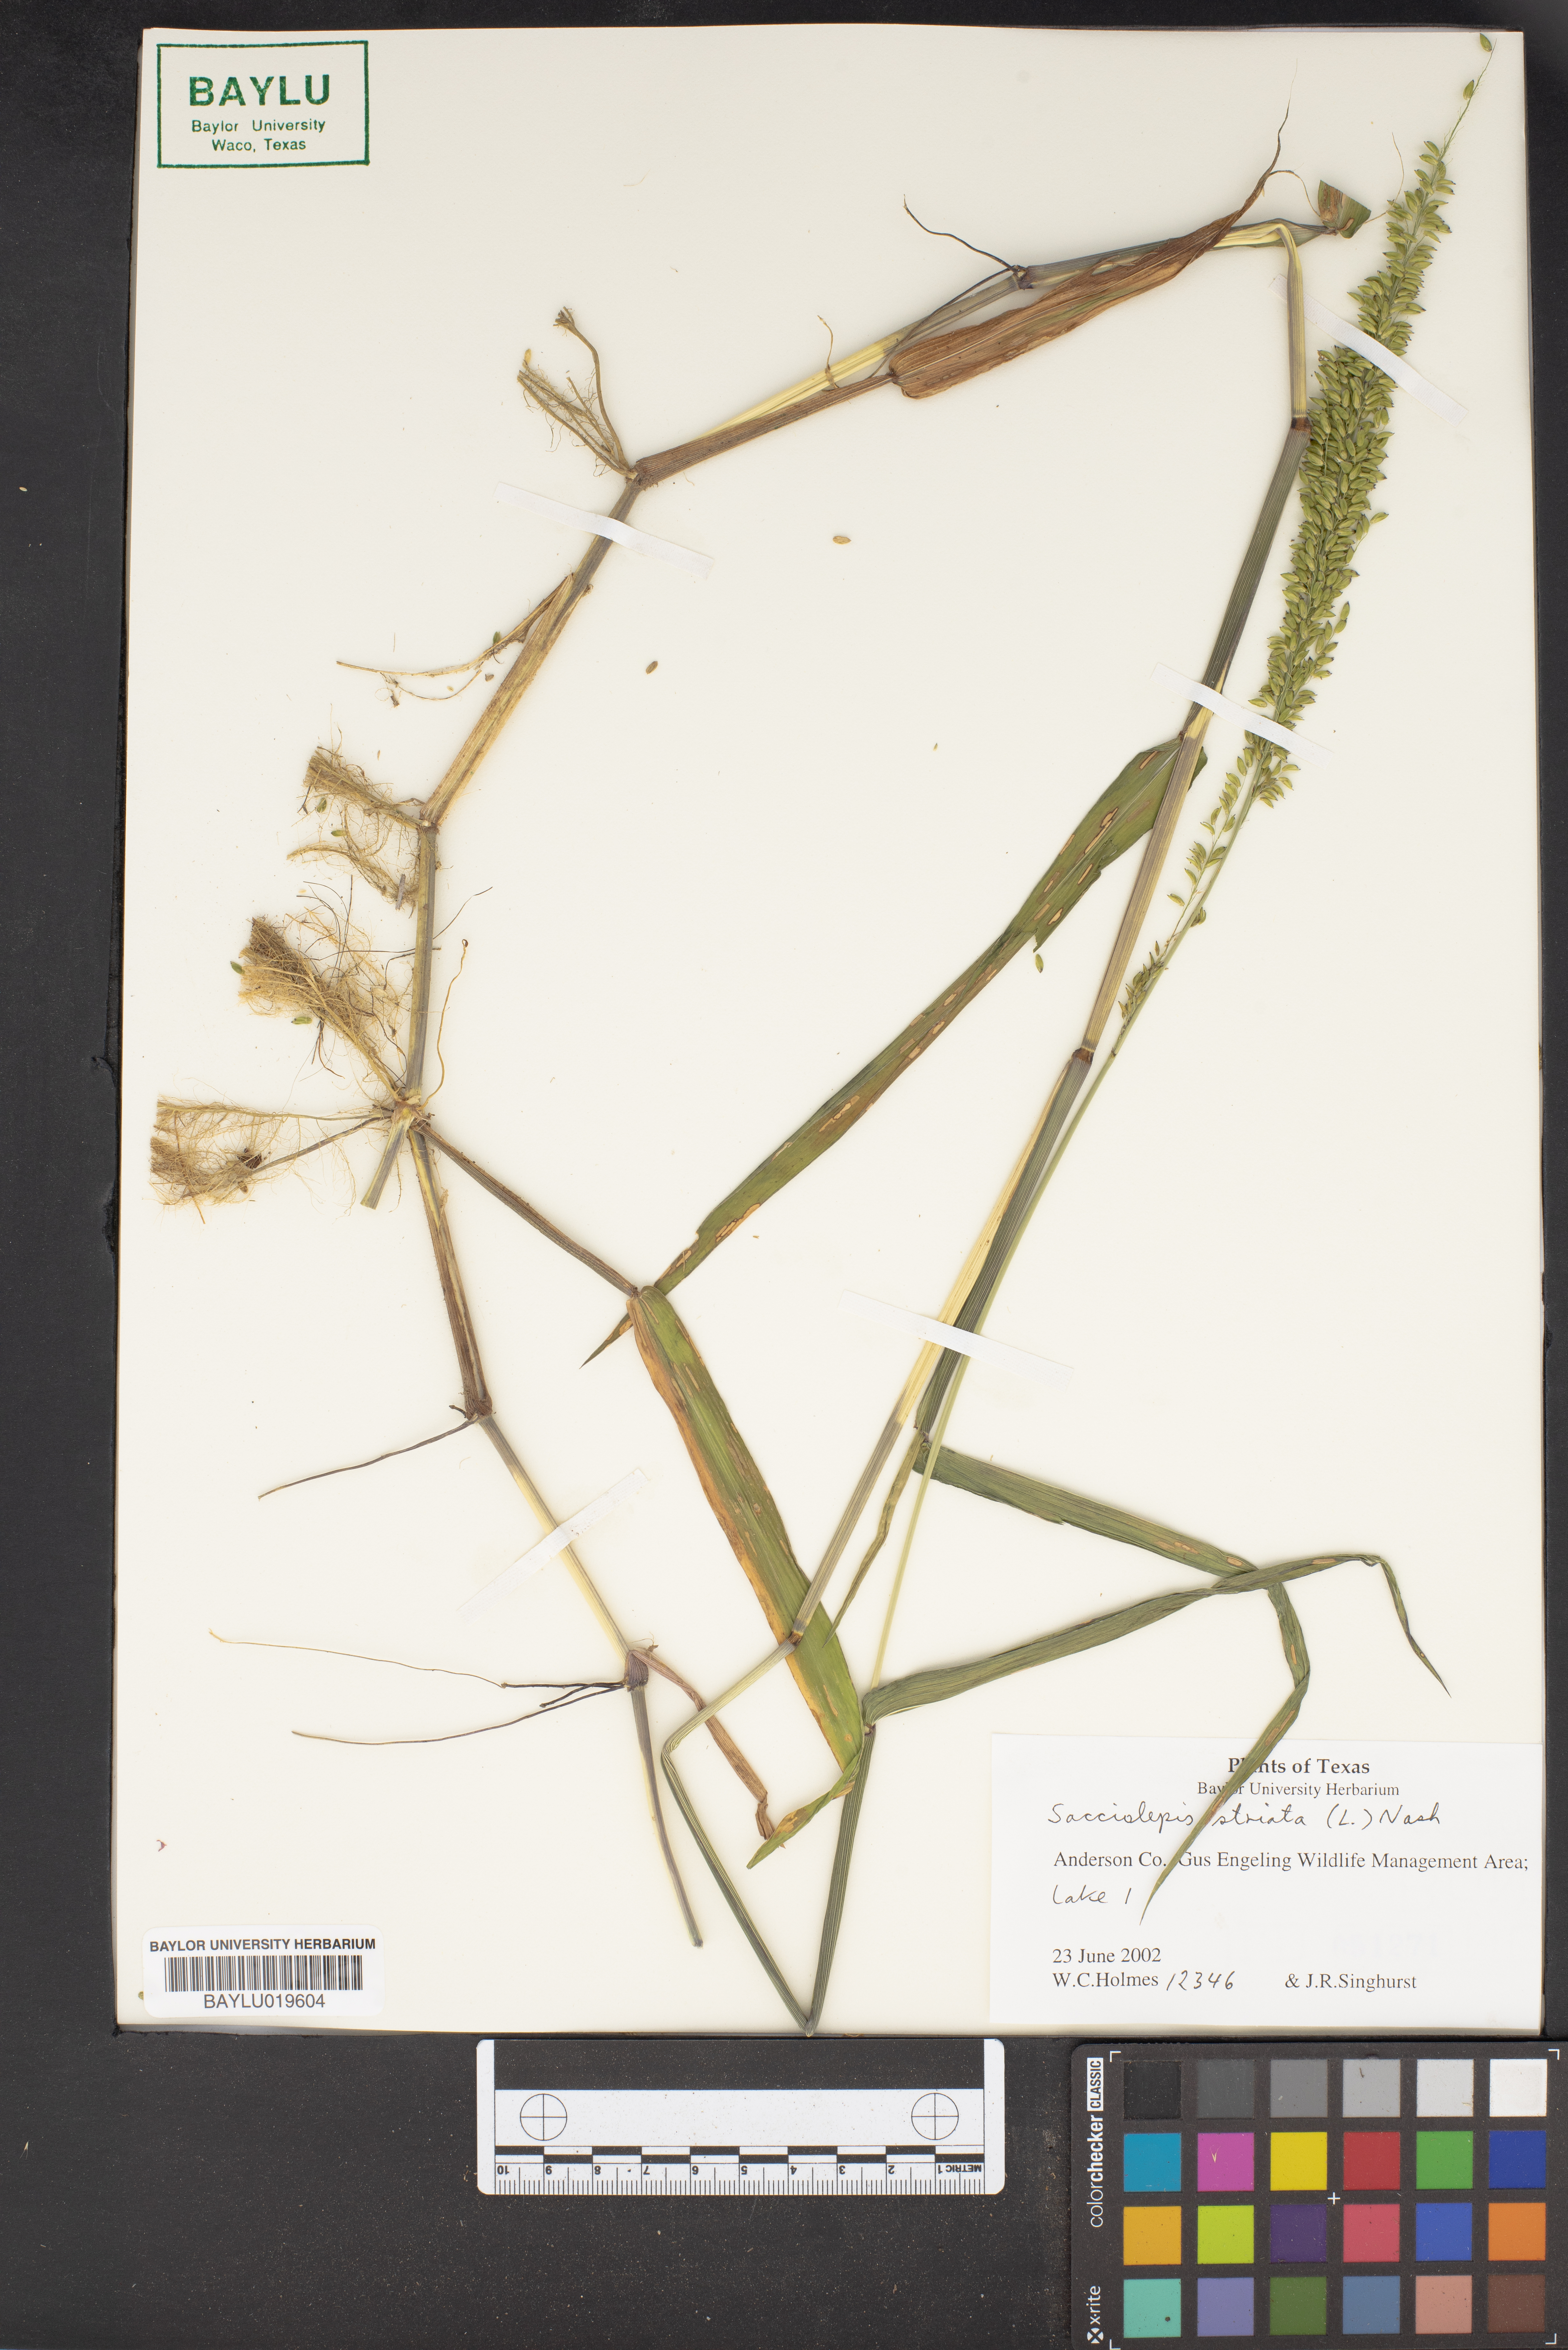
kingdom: Plantae
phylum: Tracheophyta
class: Liliopsida
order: Poales
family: Poaceae
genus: Sacciolepis
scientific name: Sacciolepis striata
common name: American cupscale
